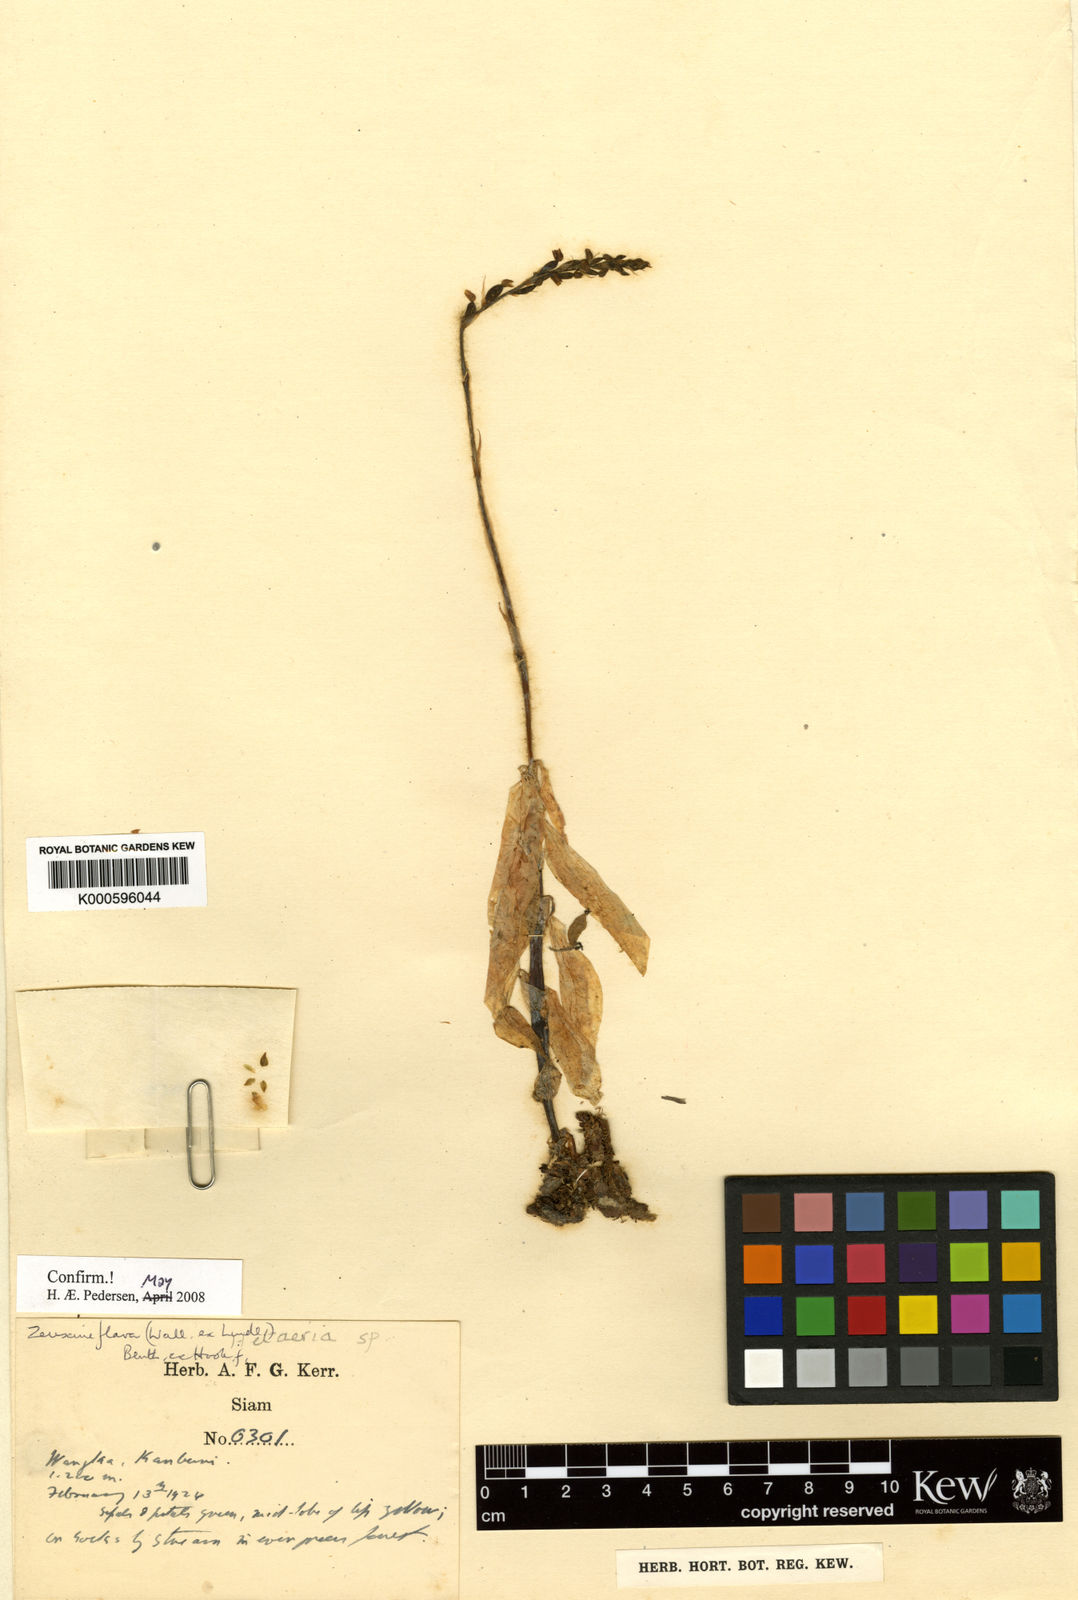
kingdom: Plantae
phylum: Tracheophyta
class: Liliopsida
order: Asparagales
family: Orchidaceae
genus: Zeuxine
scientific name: Zeuxine
